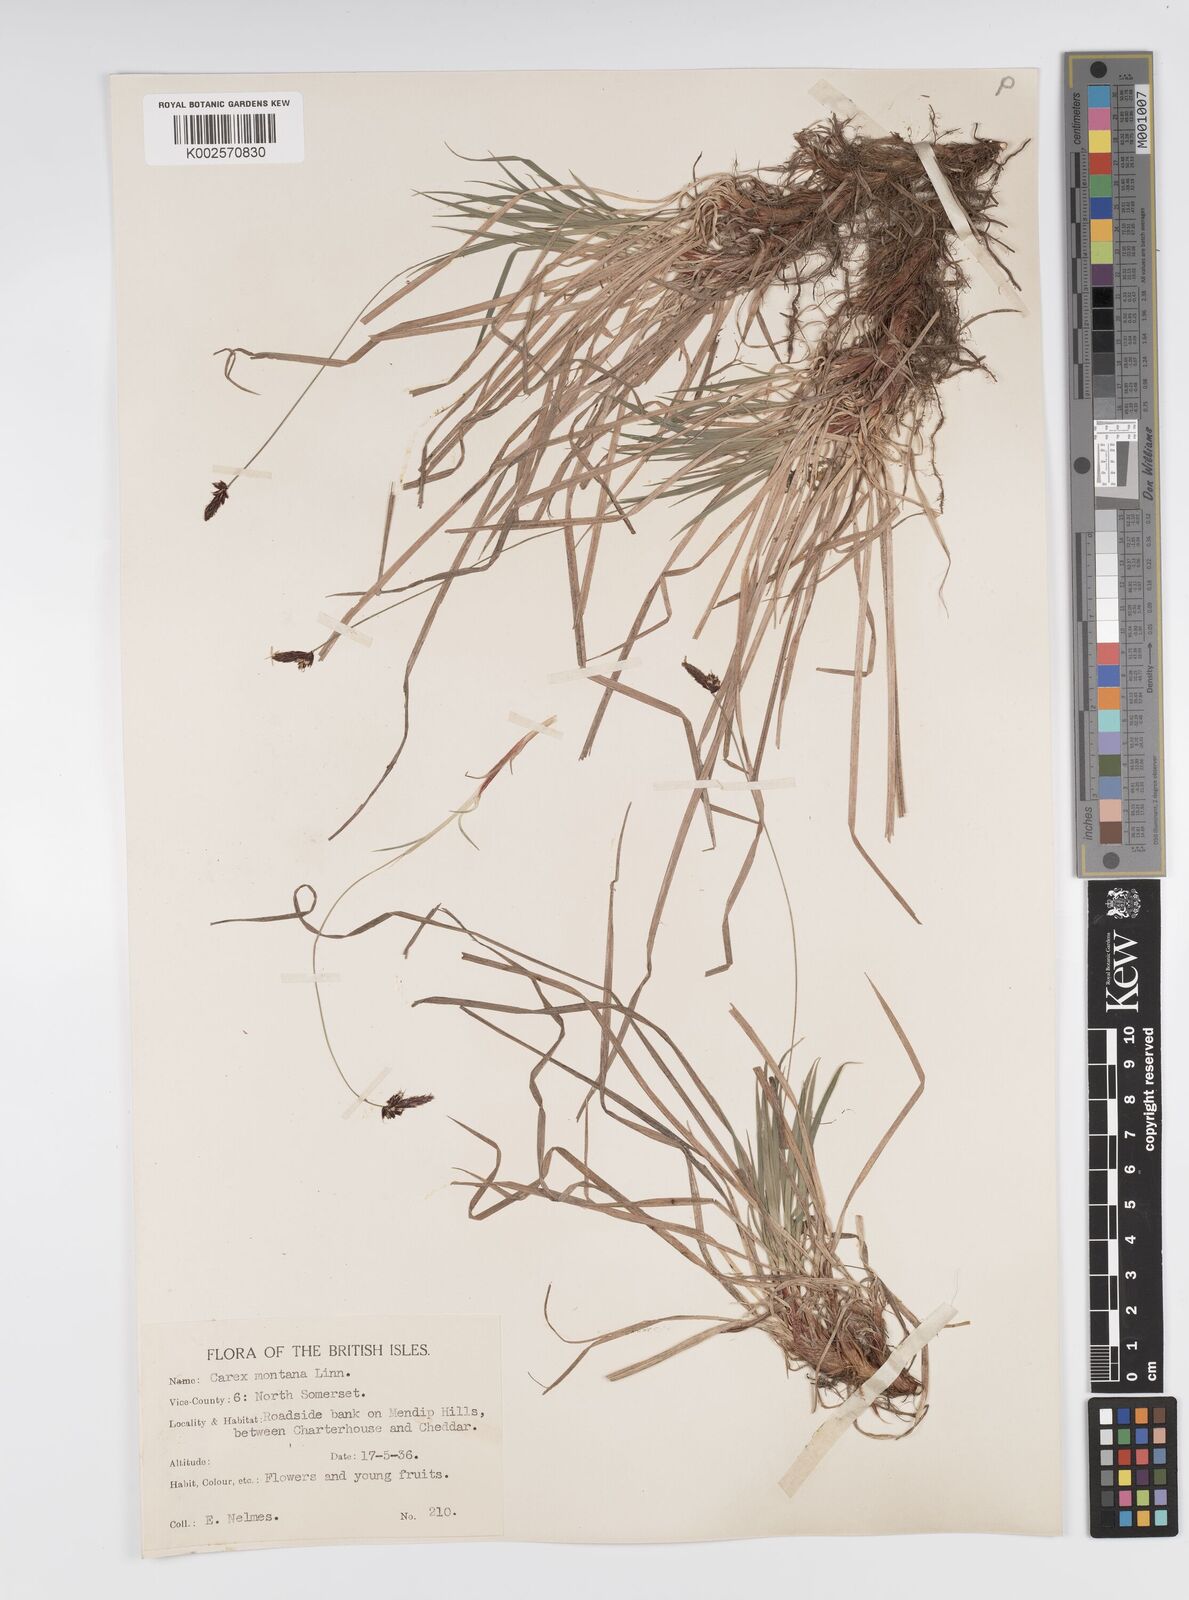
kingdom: Plantae
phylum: Tracheophyta
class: Liliopsida
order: Poales
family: Cyperaceae
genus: Carex
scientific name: Carex montana
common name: Soft-leaved sedge
